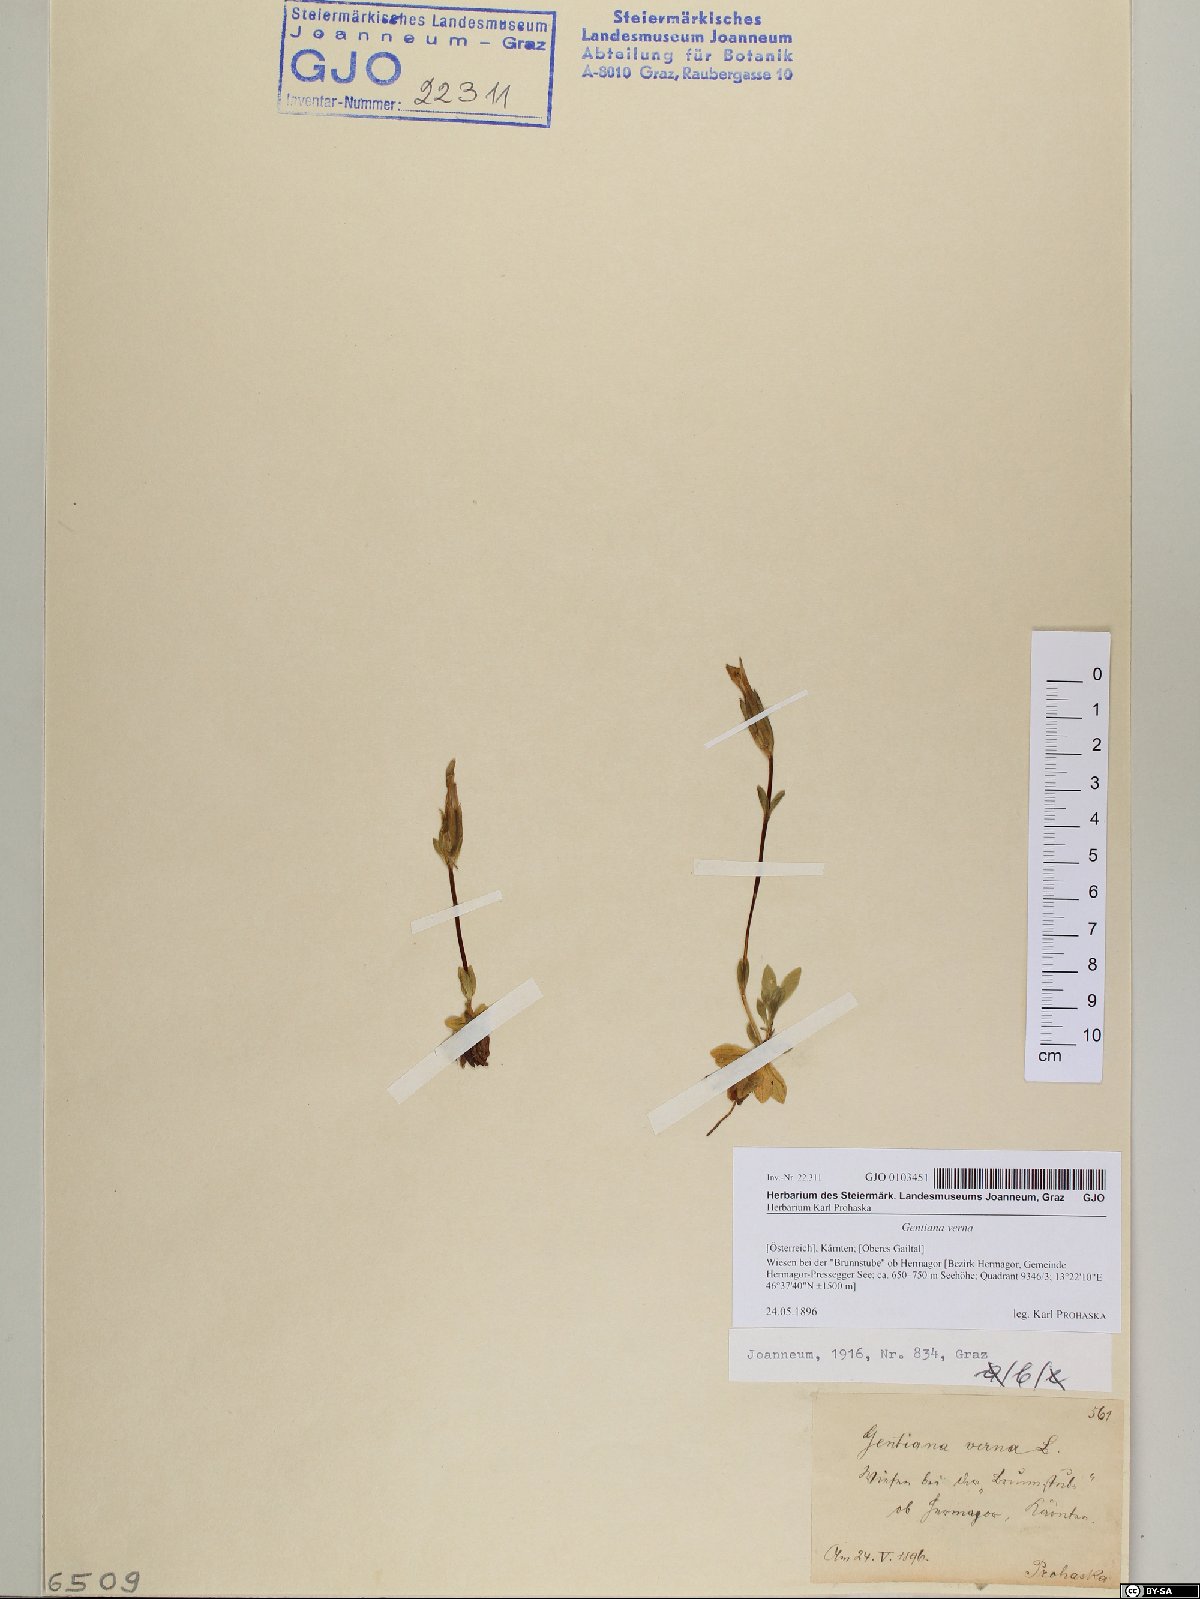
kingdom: Plantae
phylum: Tracheophyta
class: Magnoliopsida
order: Gentianales
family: Gentianaceae
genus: Gentiana
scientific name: Gentiana verna
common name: Spring gentian
